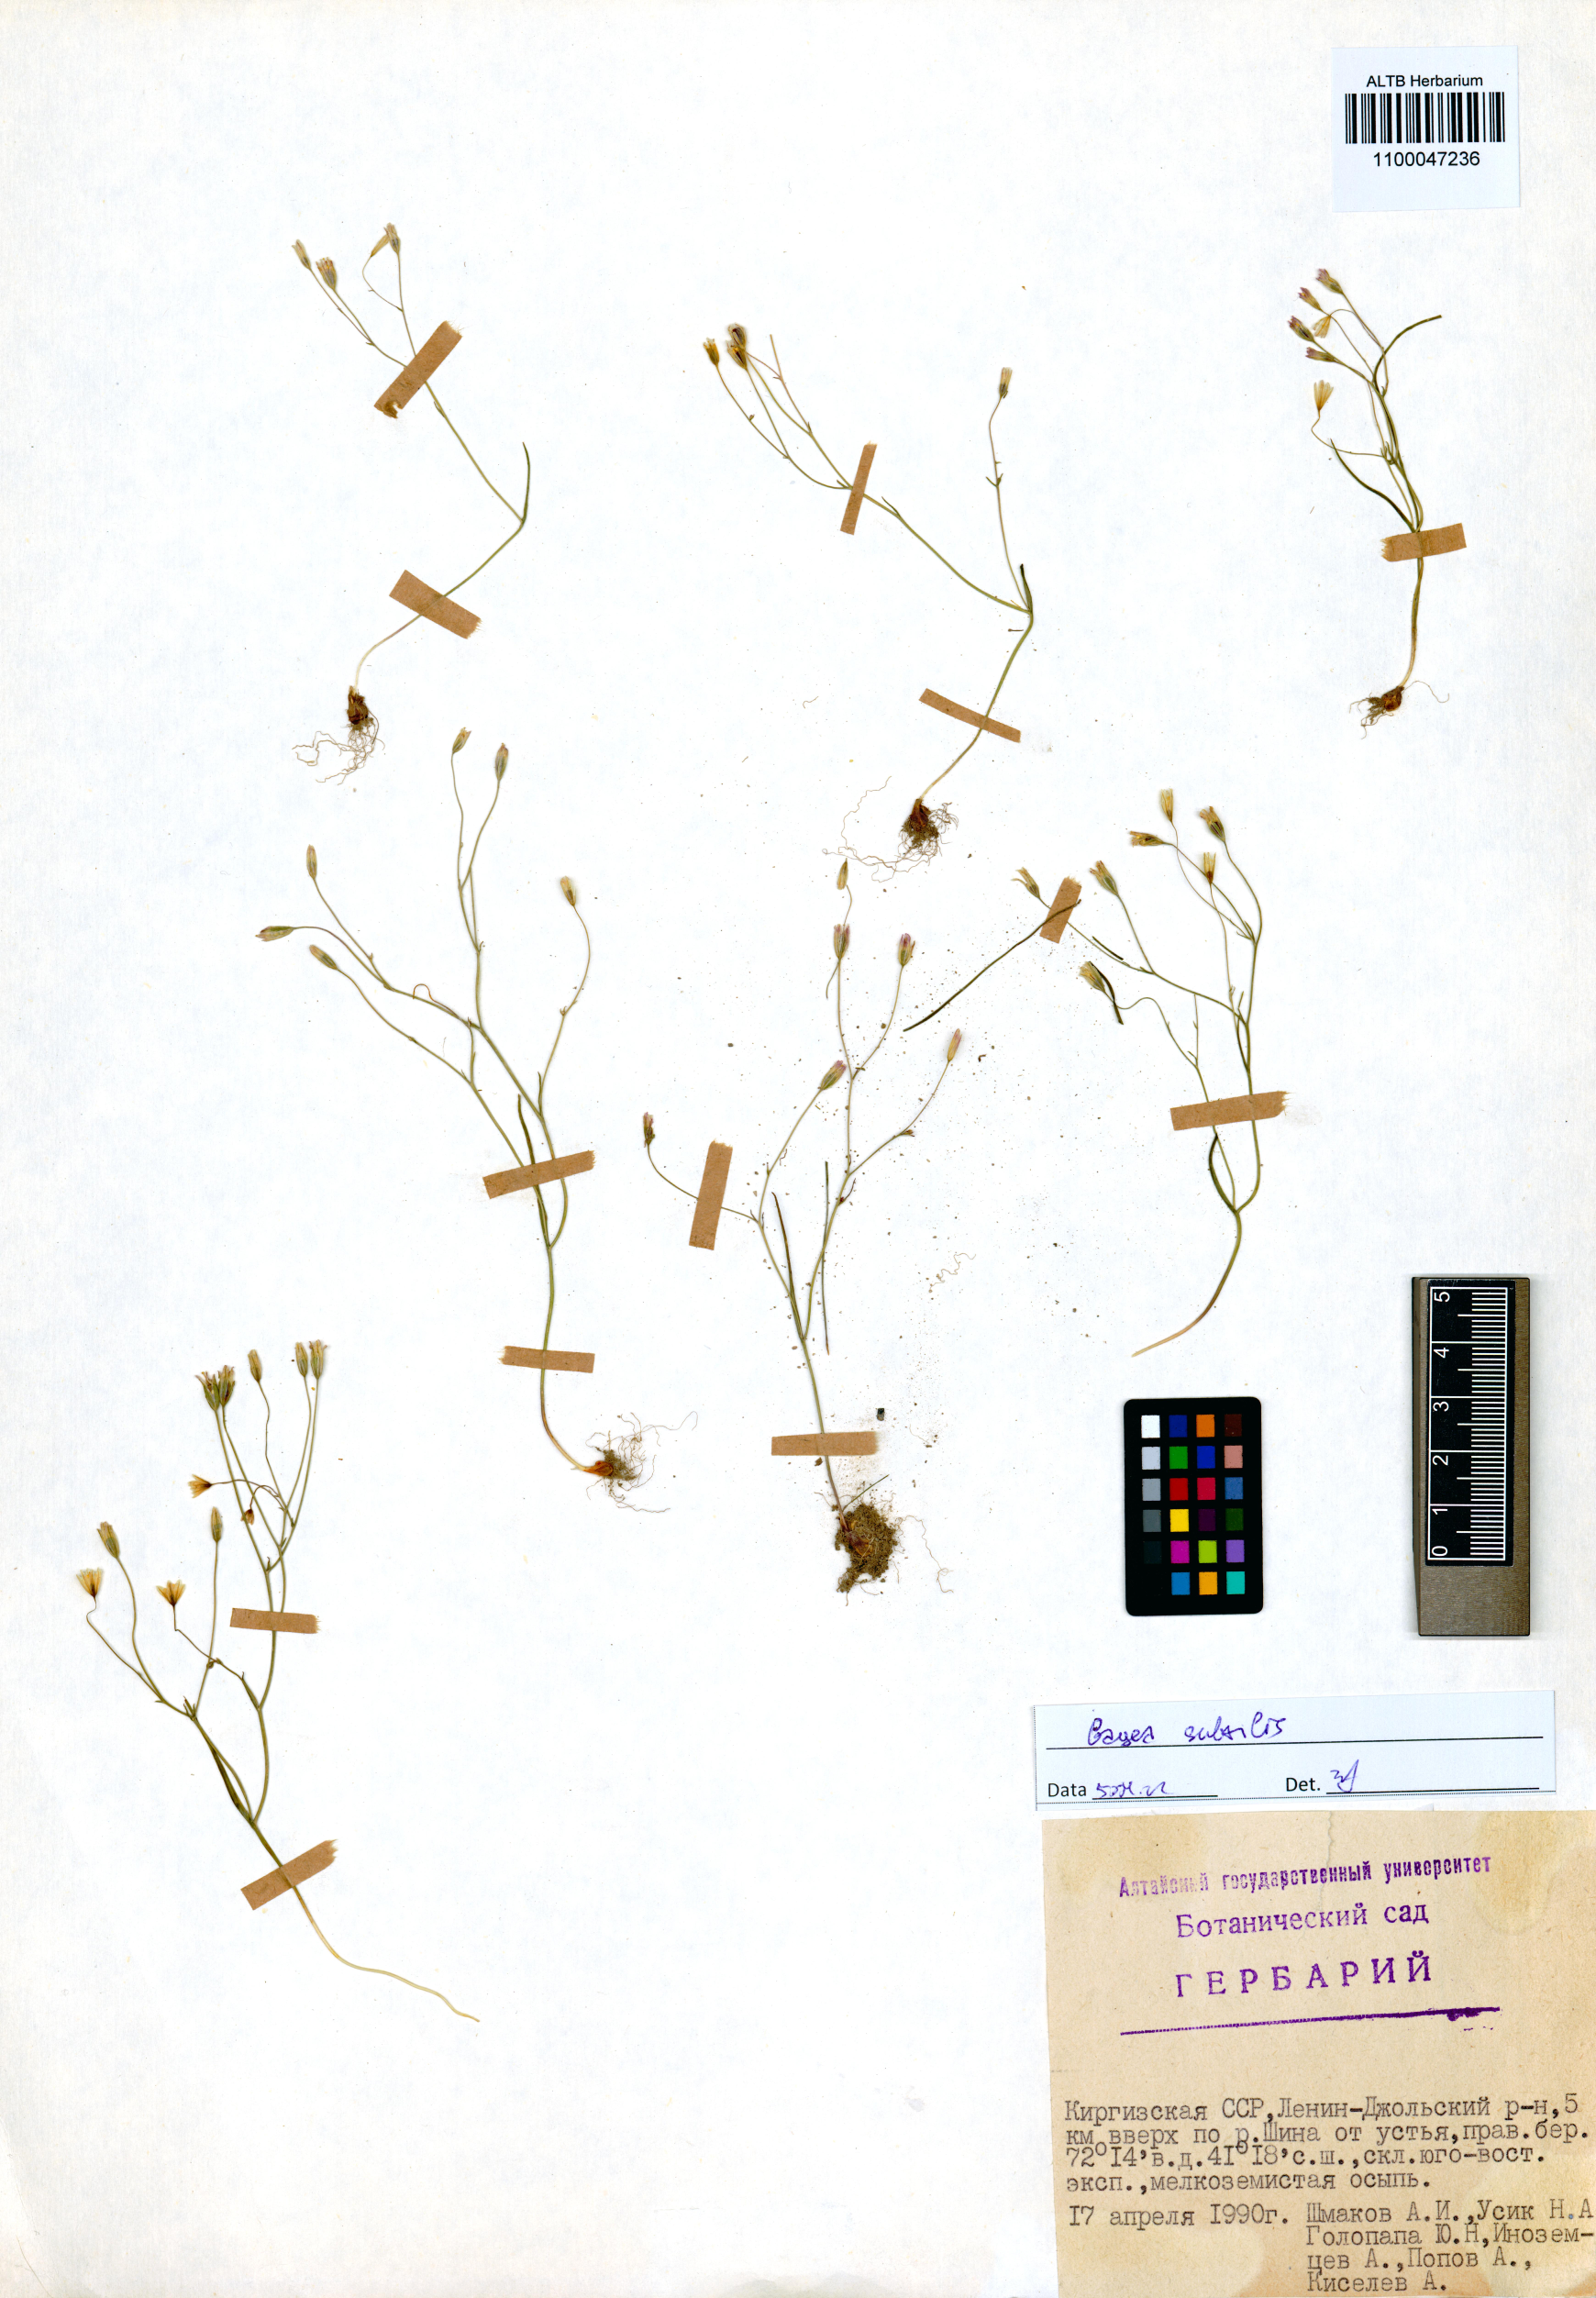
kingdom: Plantae
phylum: Tracheophyta
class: Liliopsida
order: Liliales
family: Liliaceae
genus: Gagea
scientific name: Gagea subtilis
